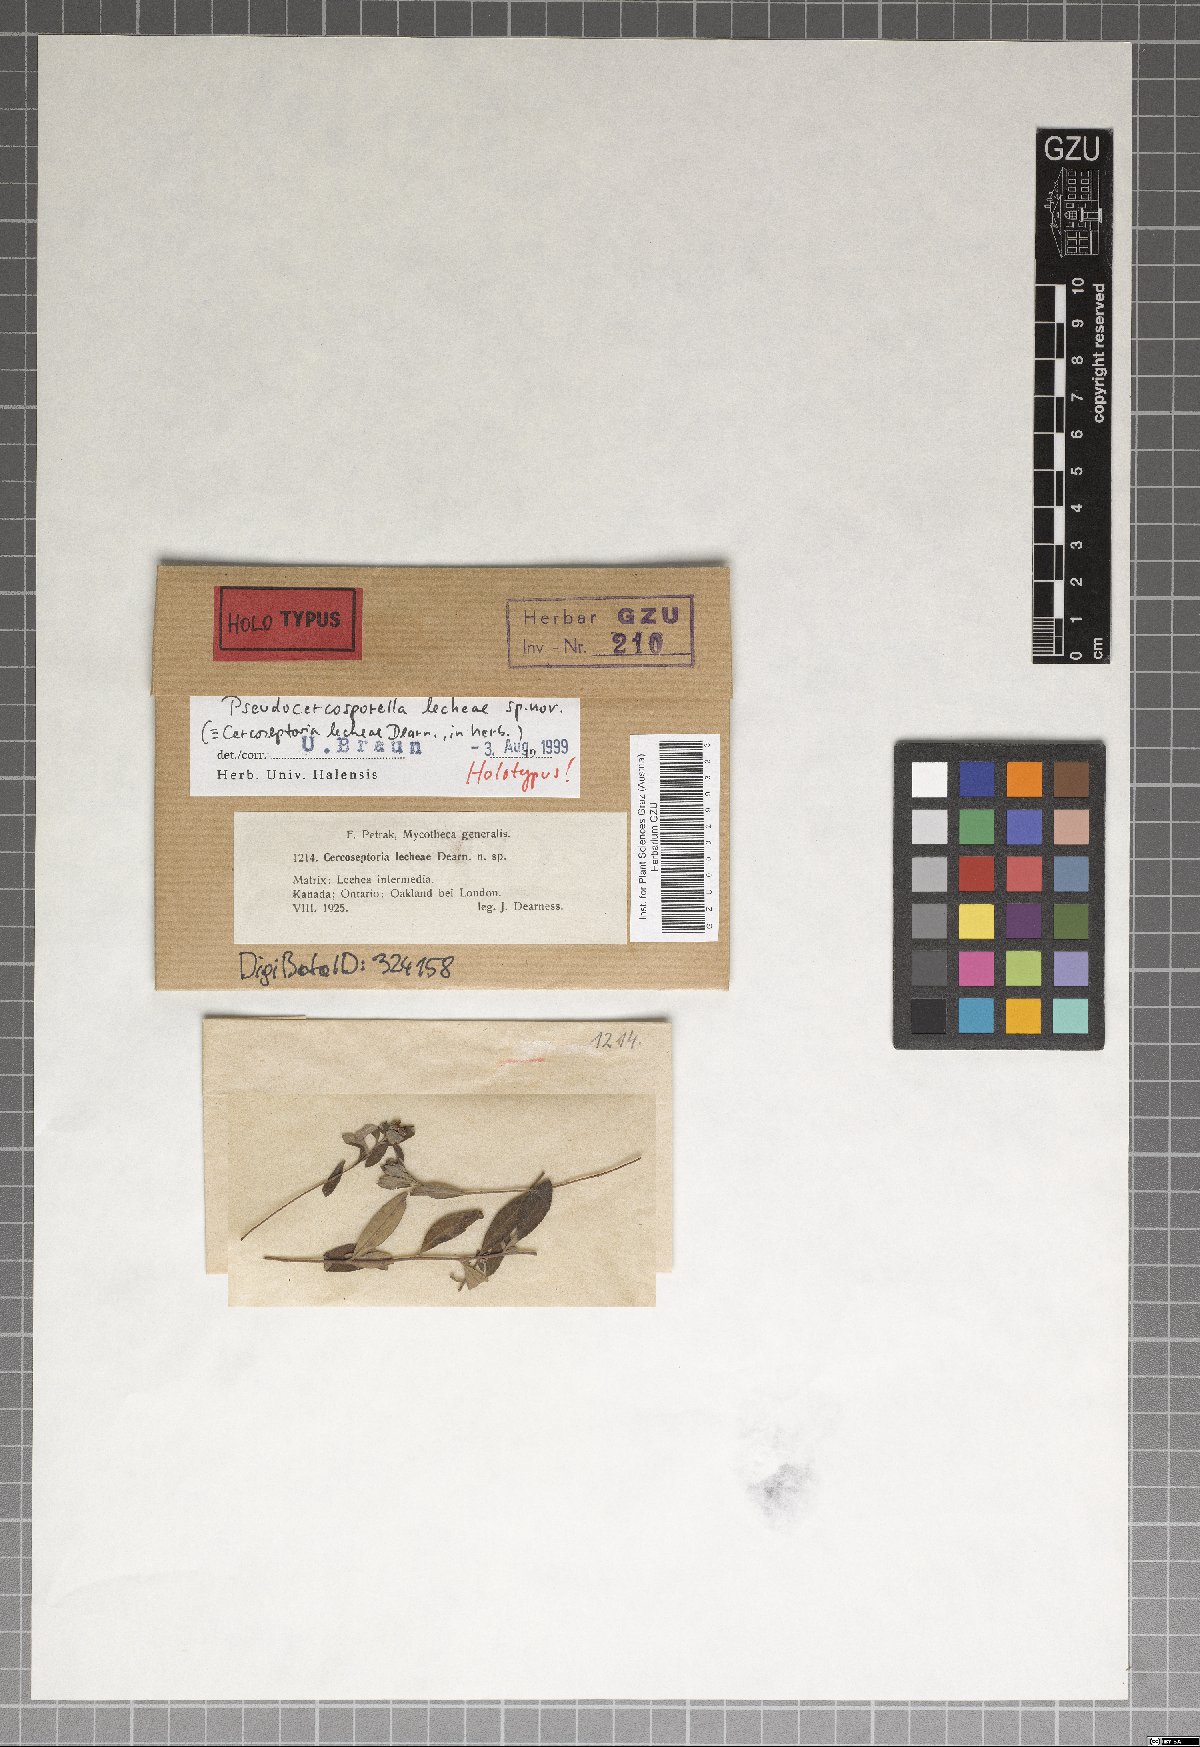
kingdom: Fungi
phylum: Ascomycota
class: Dothideomycetes
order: Mycosphaerellales
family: Mycosphaerellaceae
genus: Pseudocercosporella
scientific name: Pseudocercosporella lecheae
